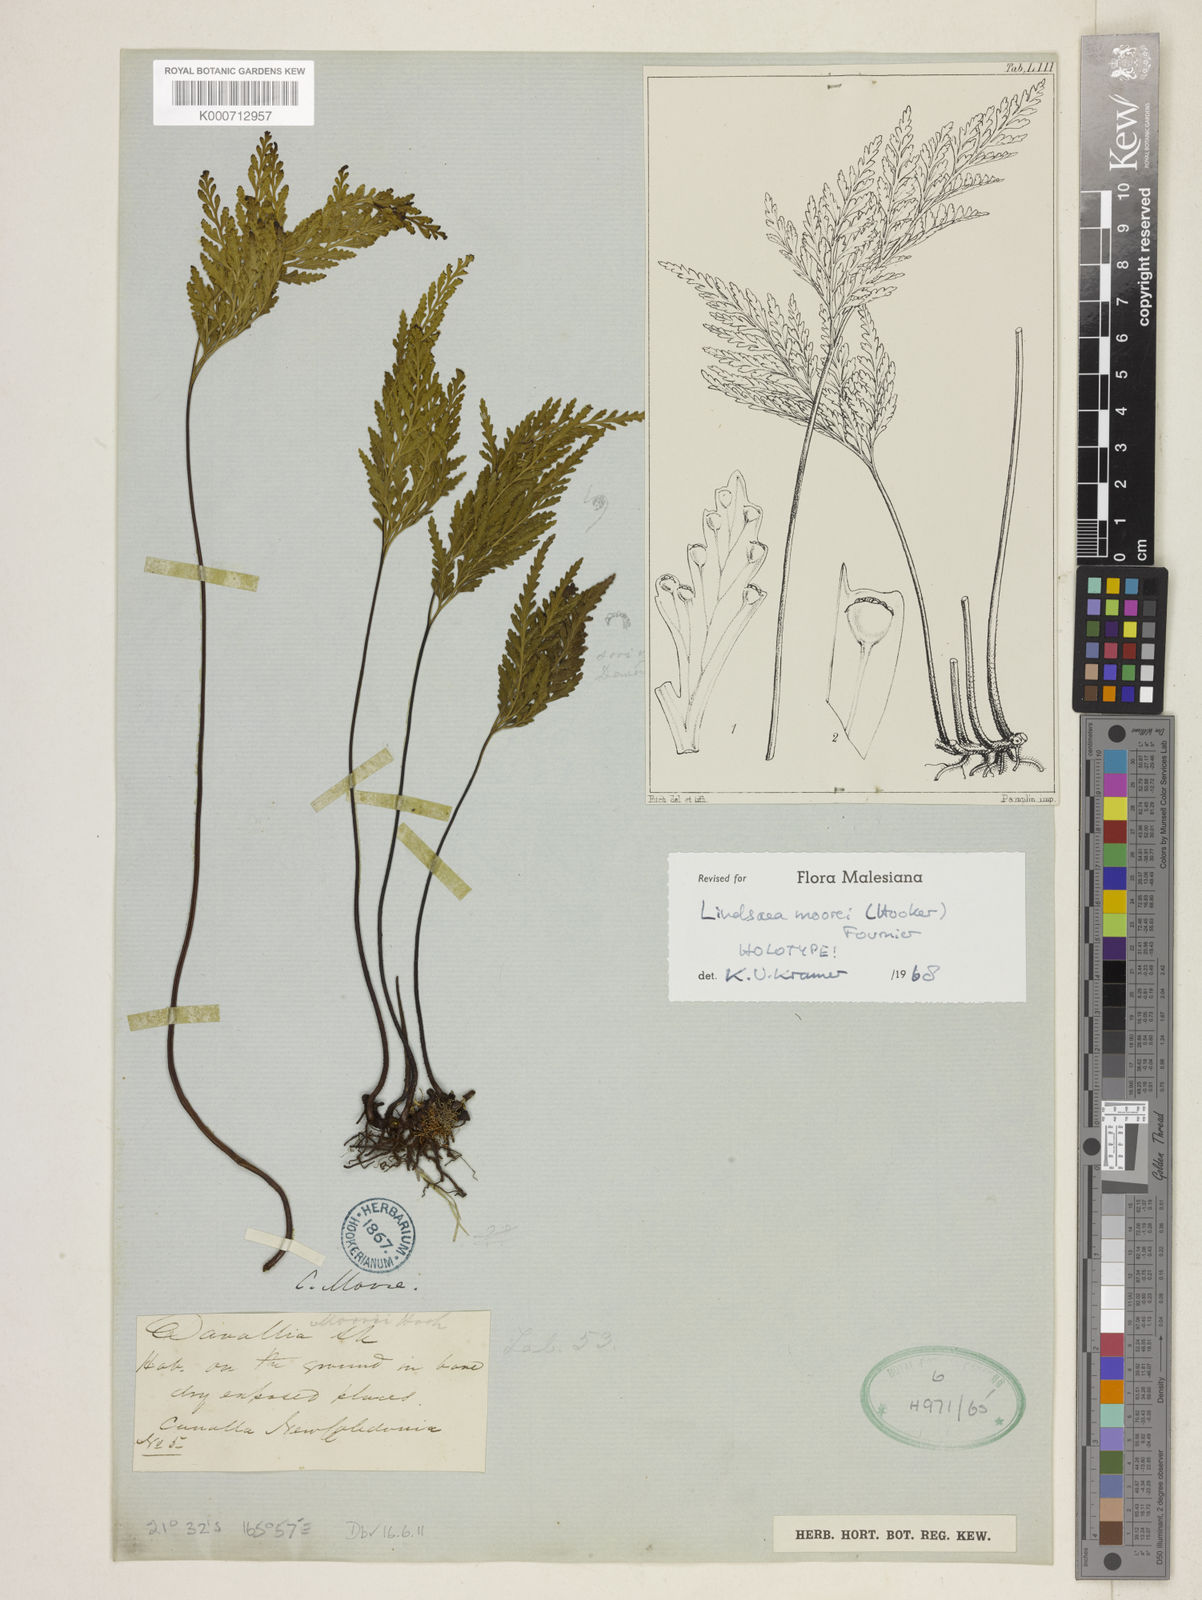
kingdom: Plantae
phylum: Tracheophyta
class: Polypodiopsida
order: Polypodiales
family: Lindsaeaceae
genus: Tapeinidium
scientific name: Tapeinidium moorei
